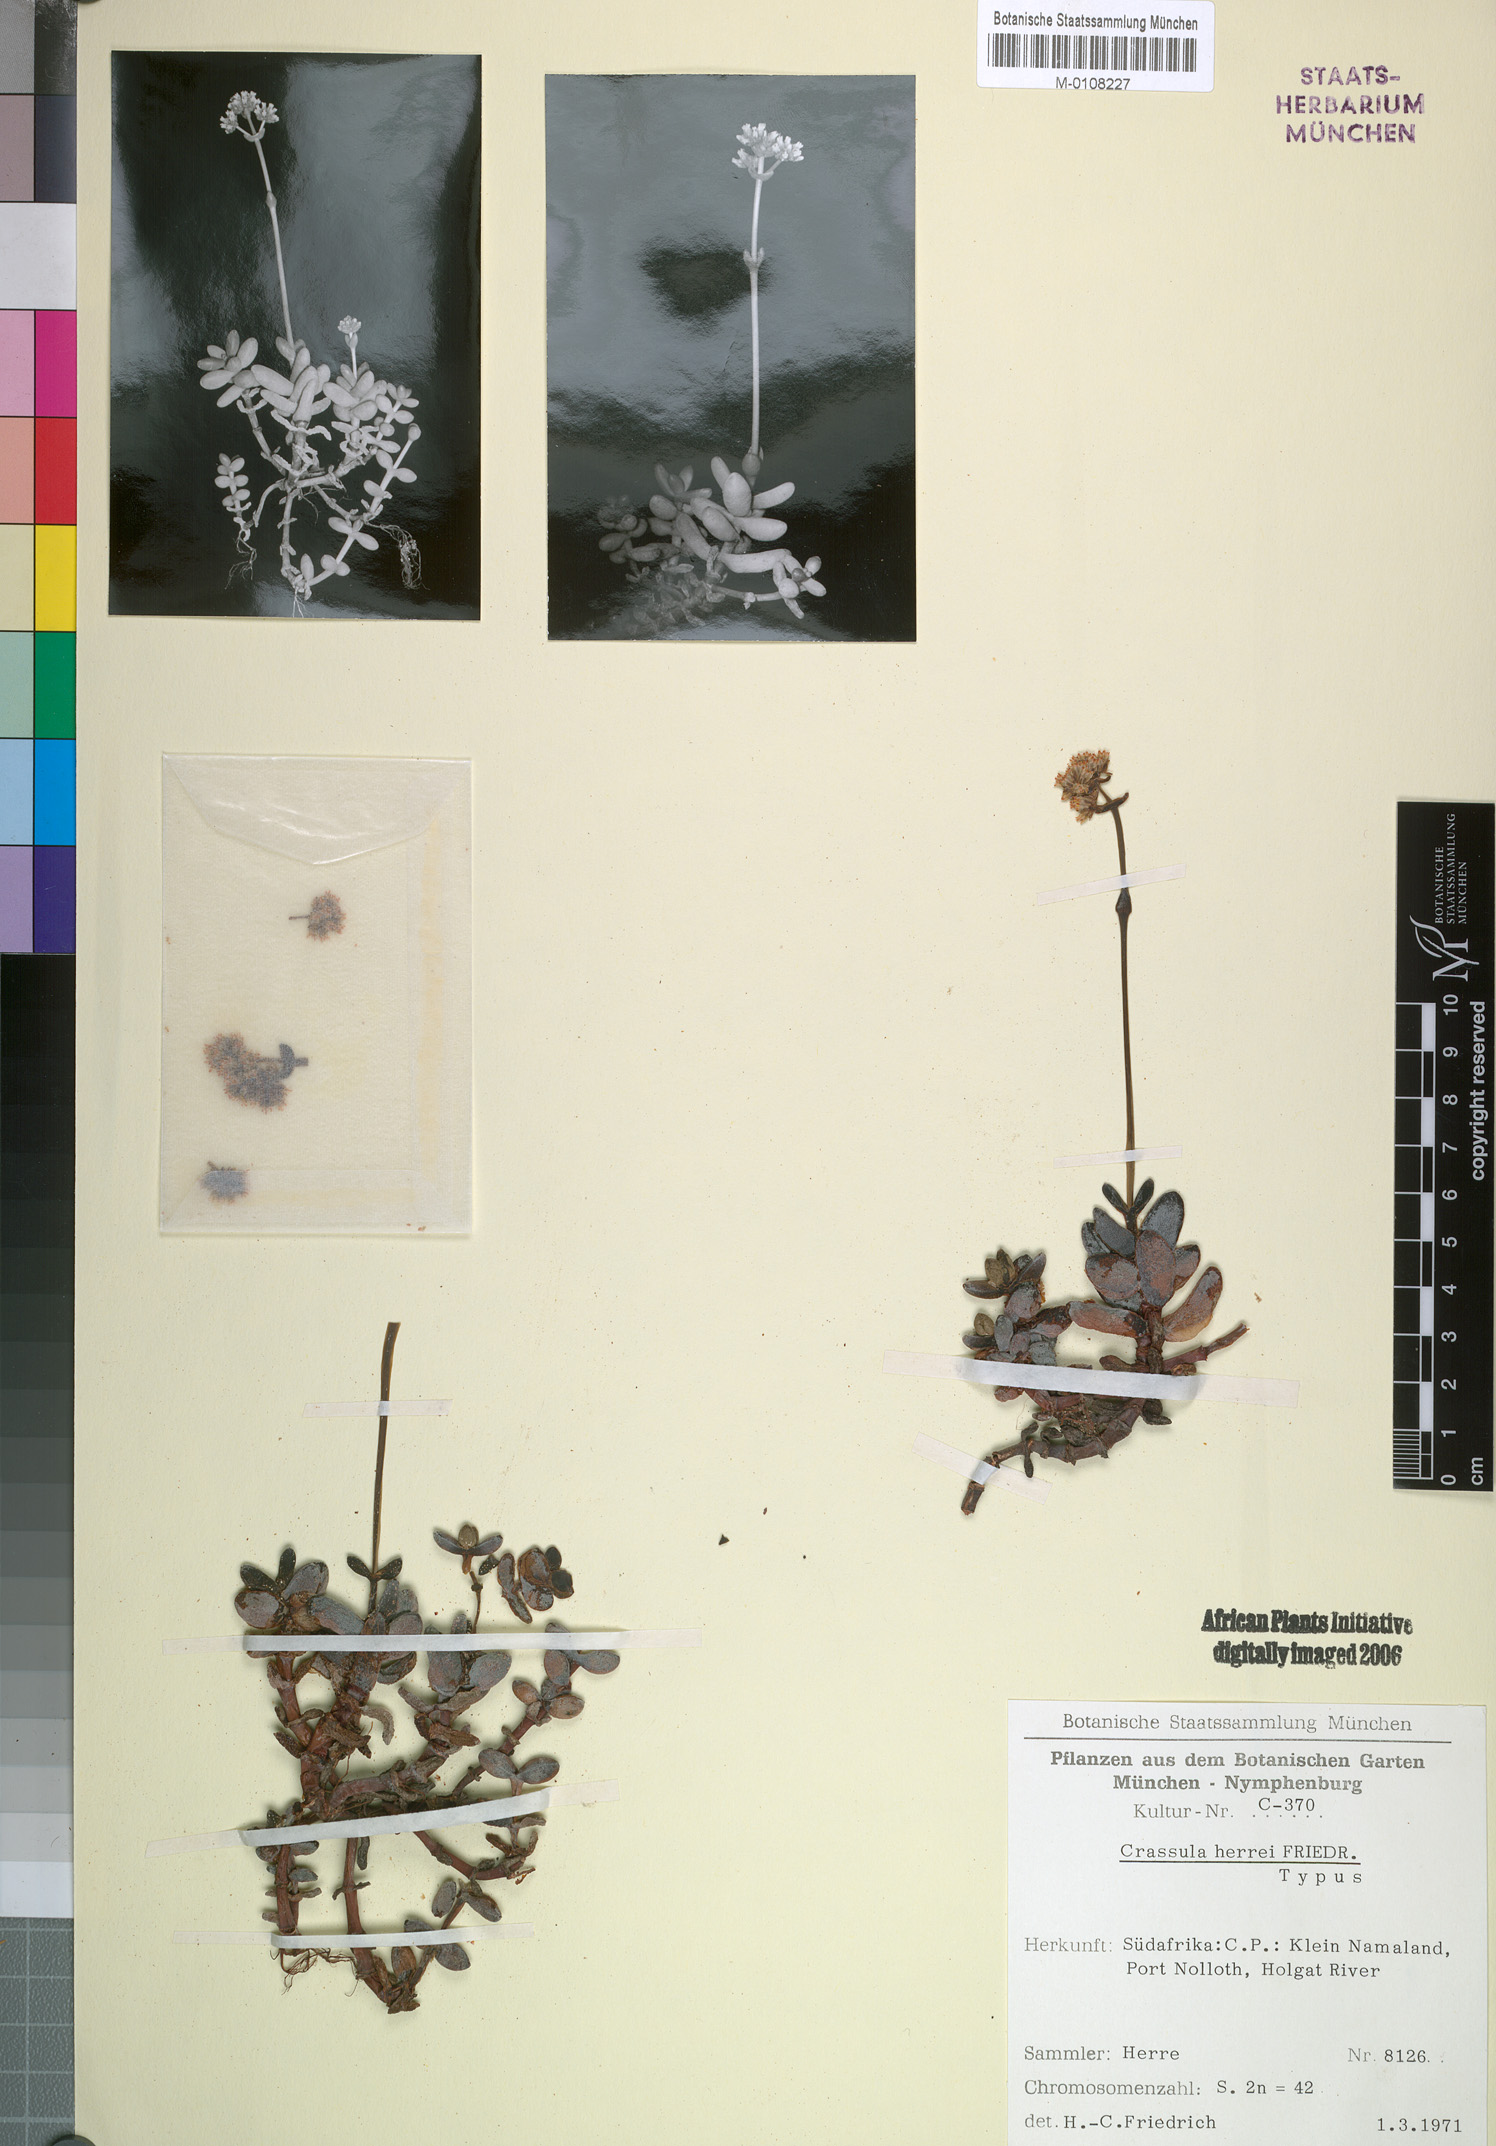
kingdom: Plantae
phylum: Tracheophyta
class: Magnoliopsida
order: Saxifragales
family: Crassulaceae
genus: Crassula
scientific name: Crassula nudicaulis
